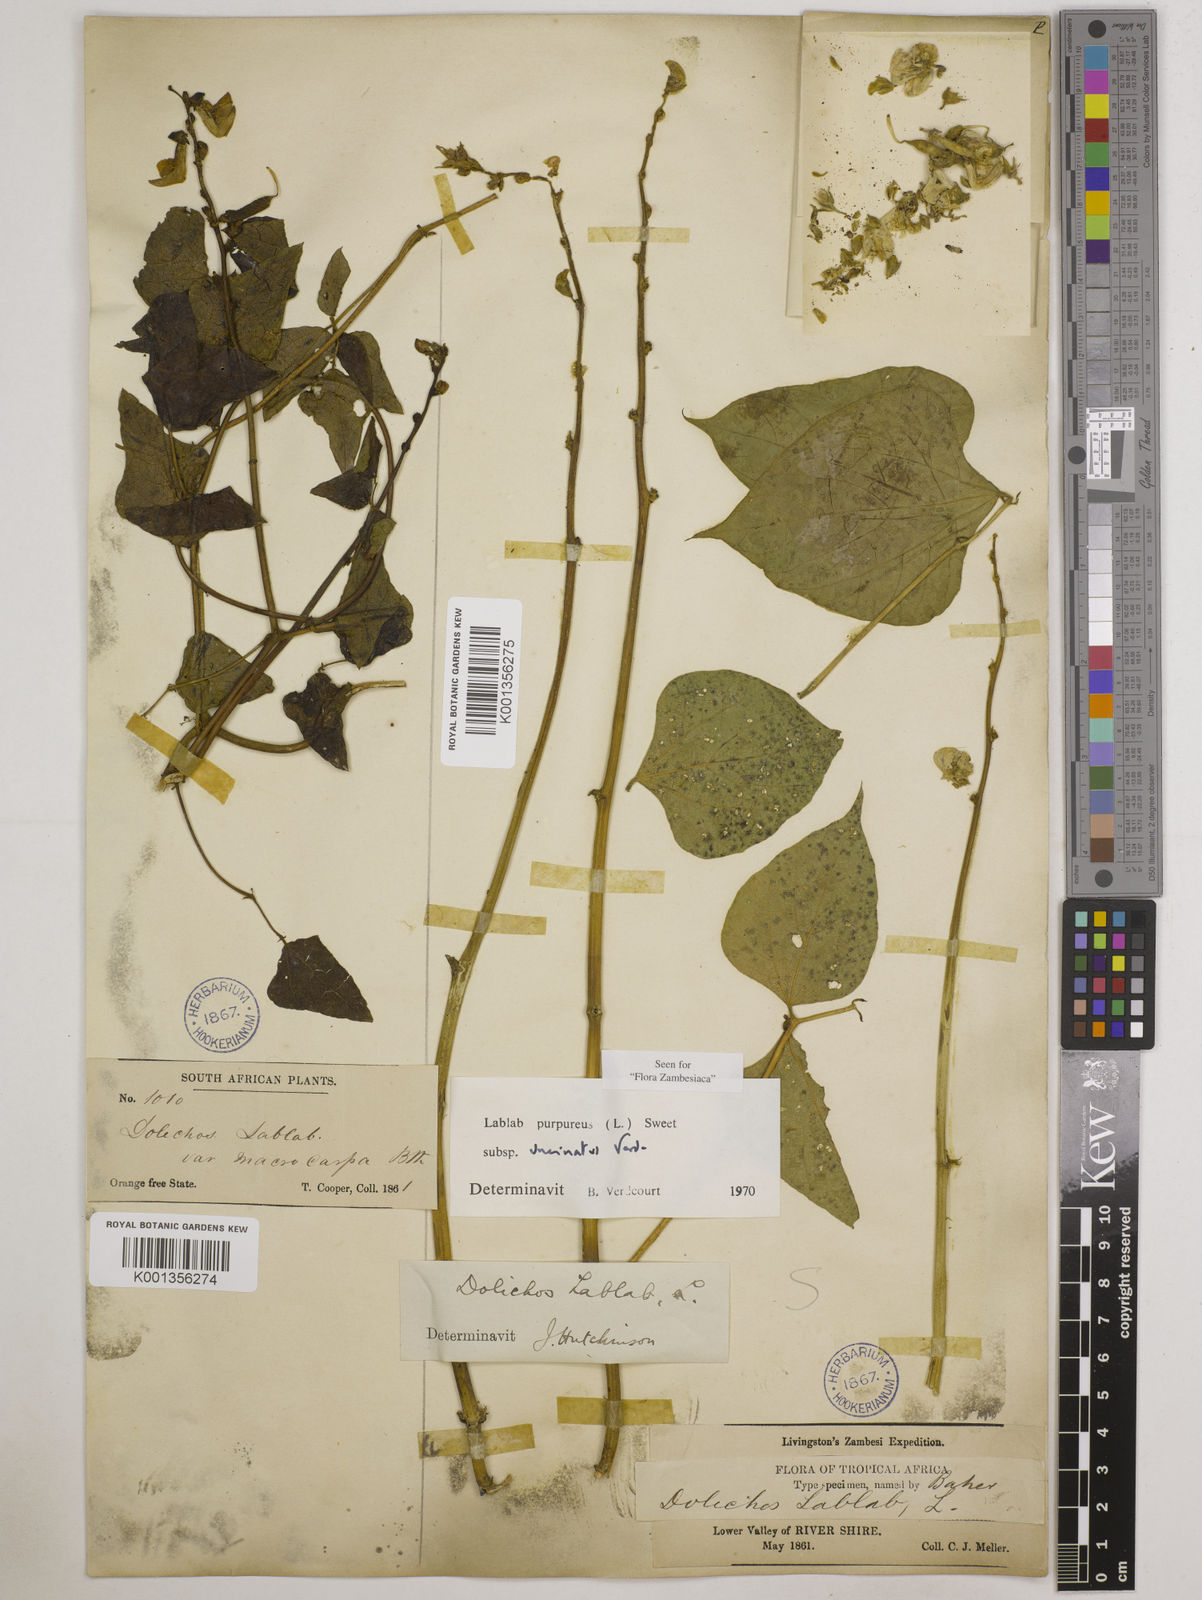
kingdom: Plantae
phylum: Tracheophyta
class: Magnoliopsida
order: Fabales
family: Fabaceae
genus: Lablab
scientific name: Lablab purpureus
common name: Lablab-bean
